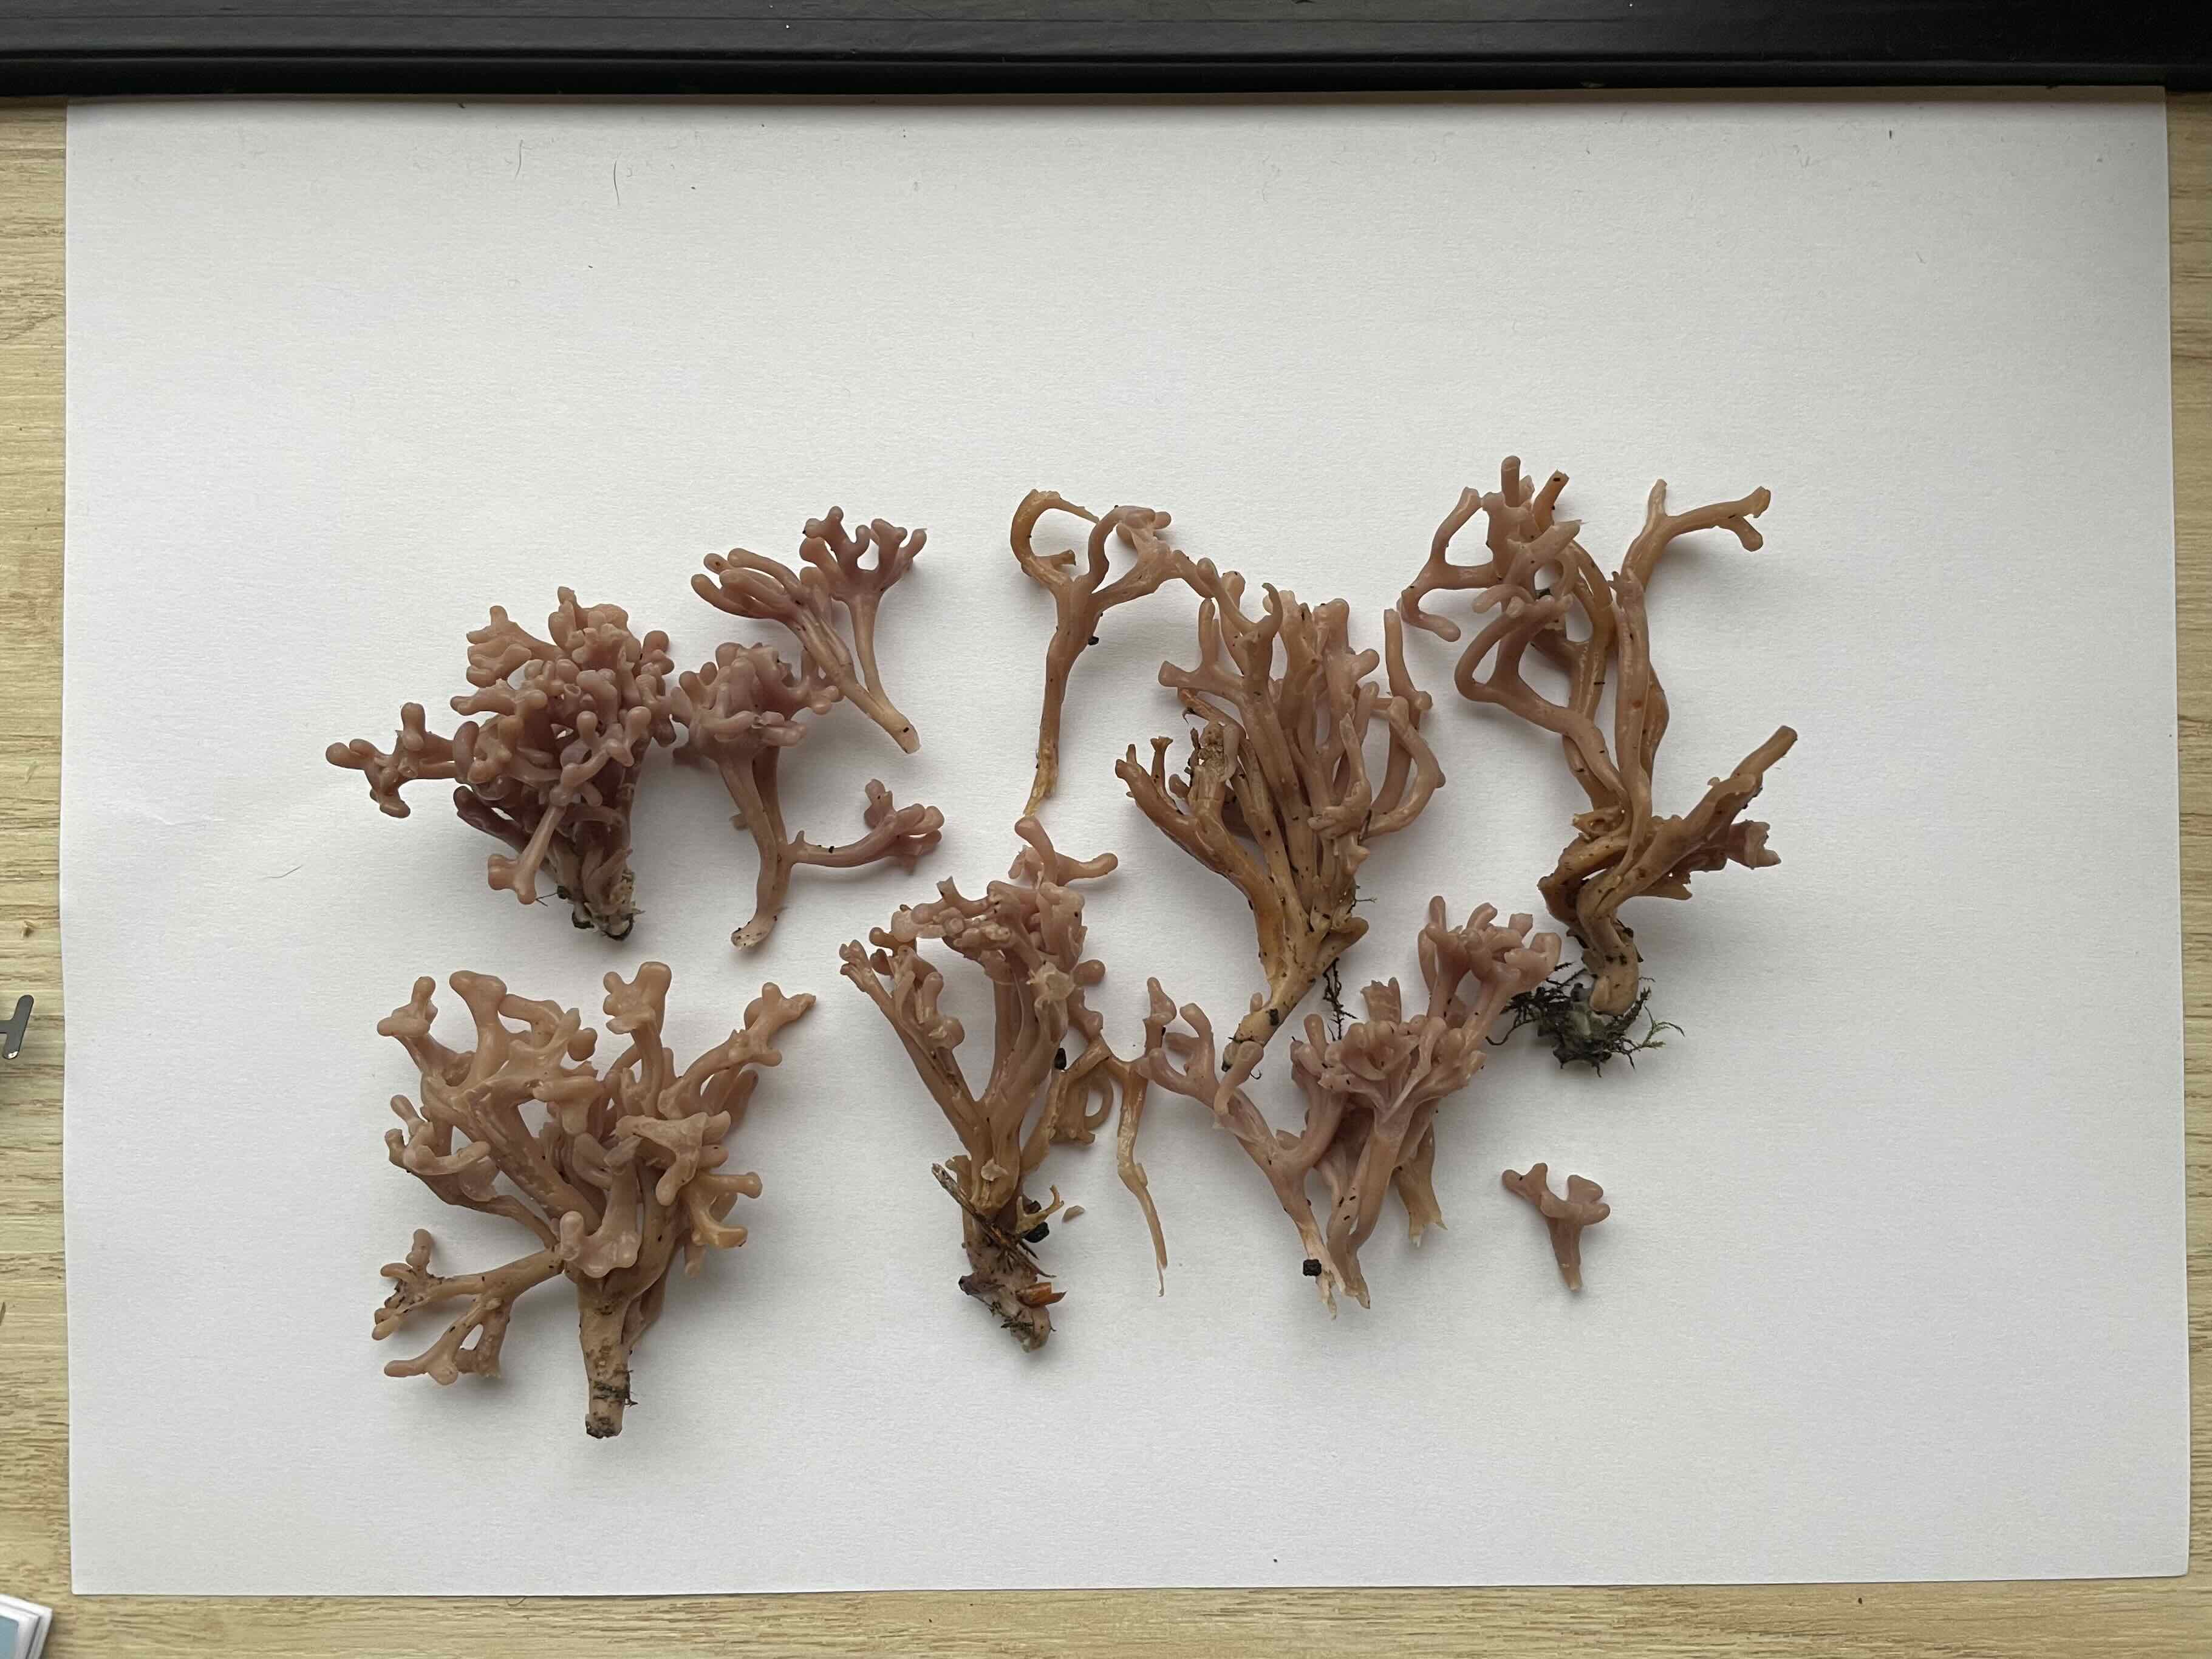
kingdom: Fungi
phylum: Basidiomycota
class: Agaricomycetes
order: Agaricales
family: Clavariaceae
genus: Clavaria
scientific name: Clavaria zollingeri
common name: purpur-køllesvamp
